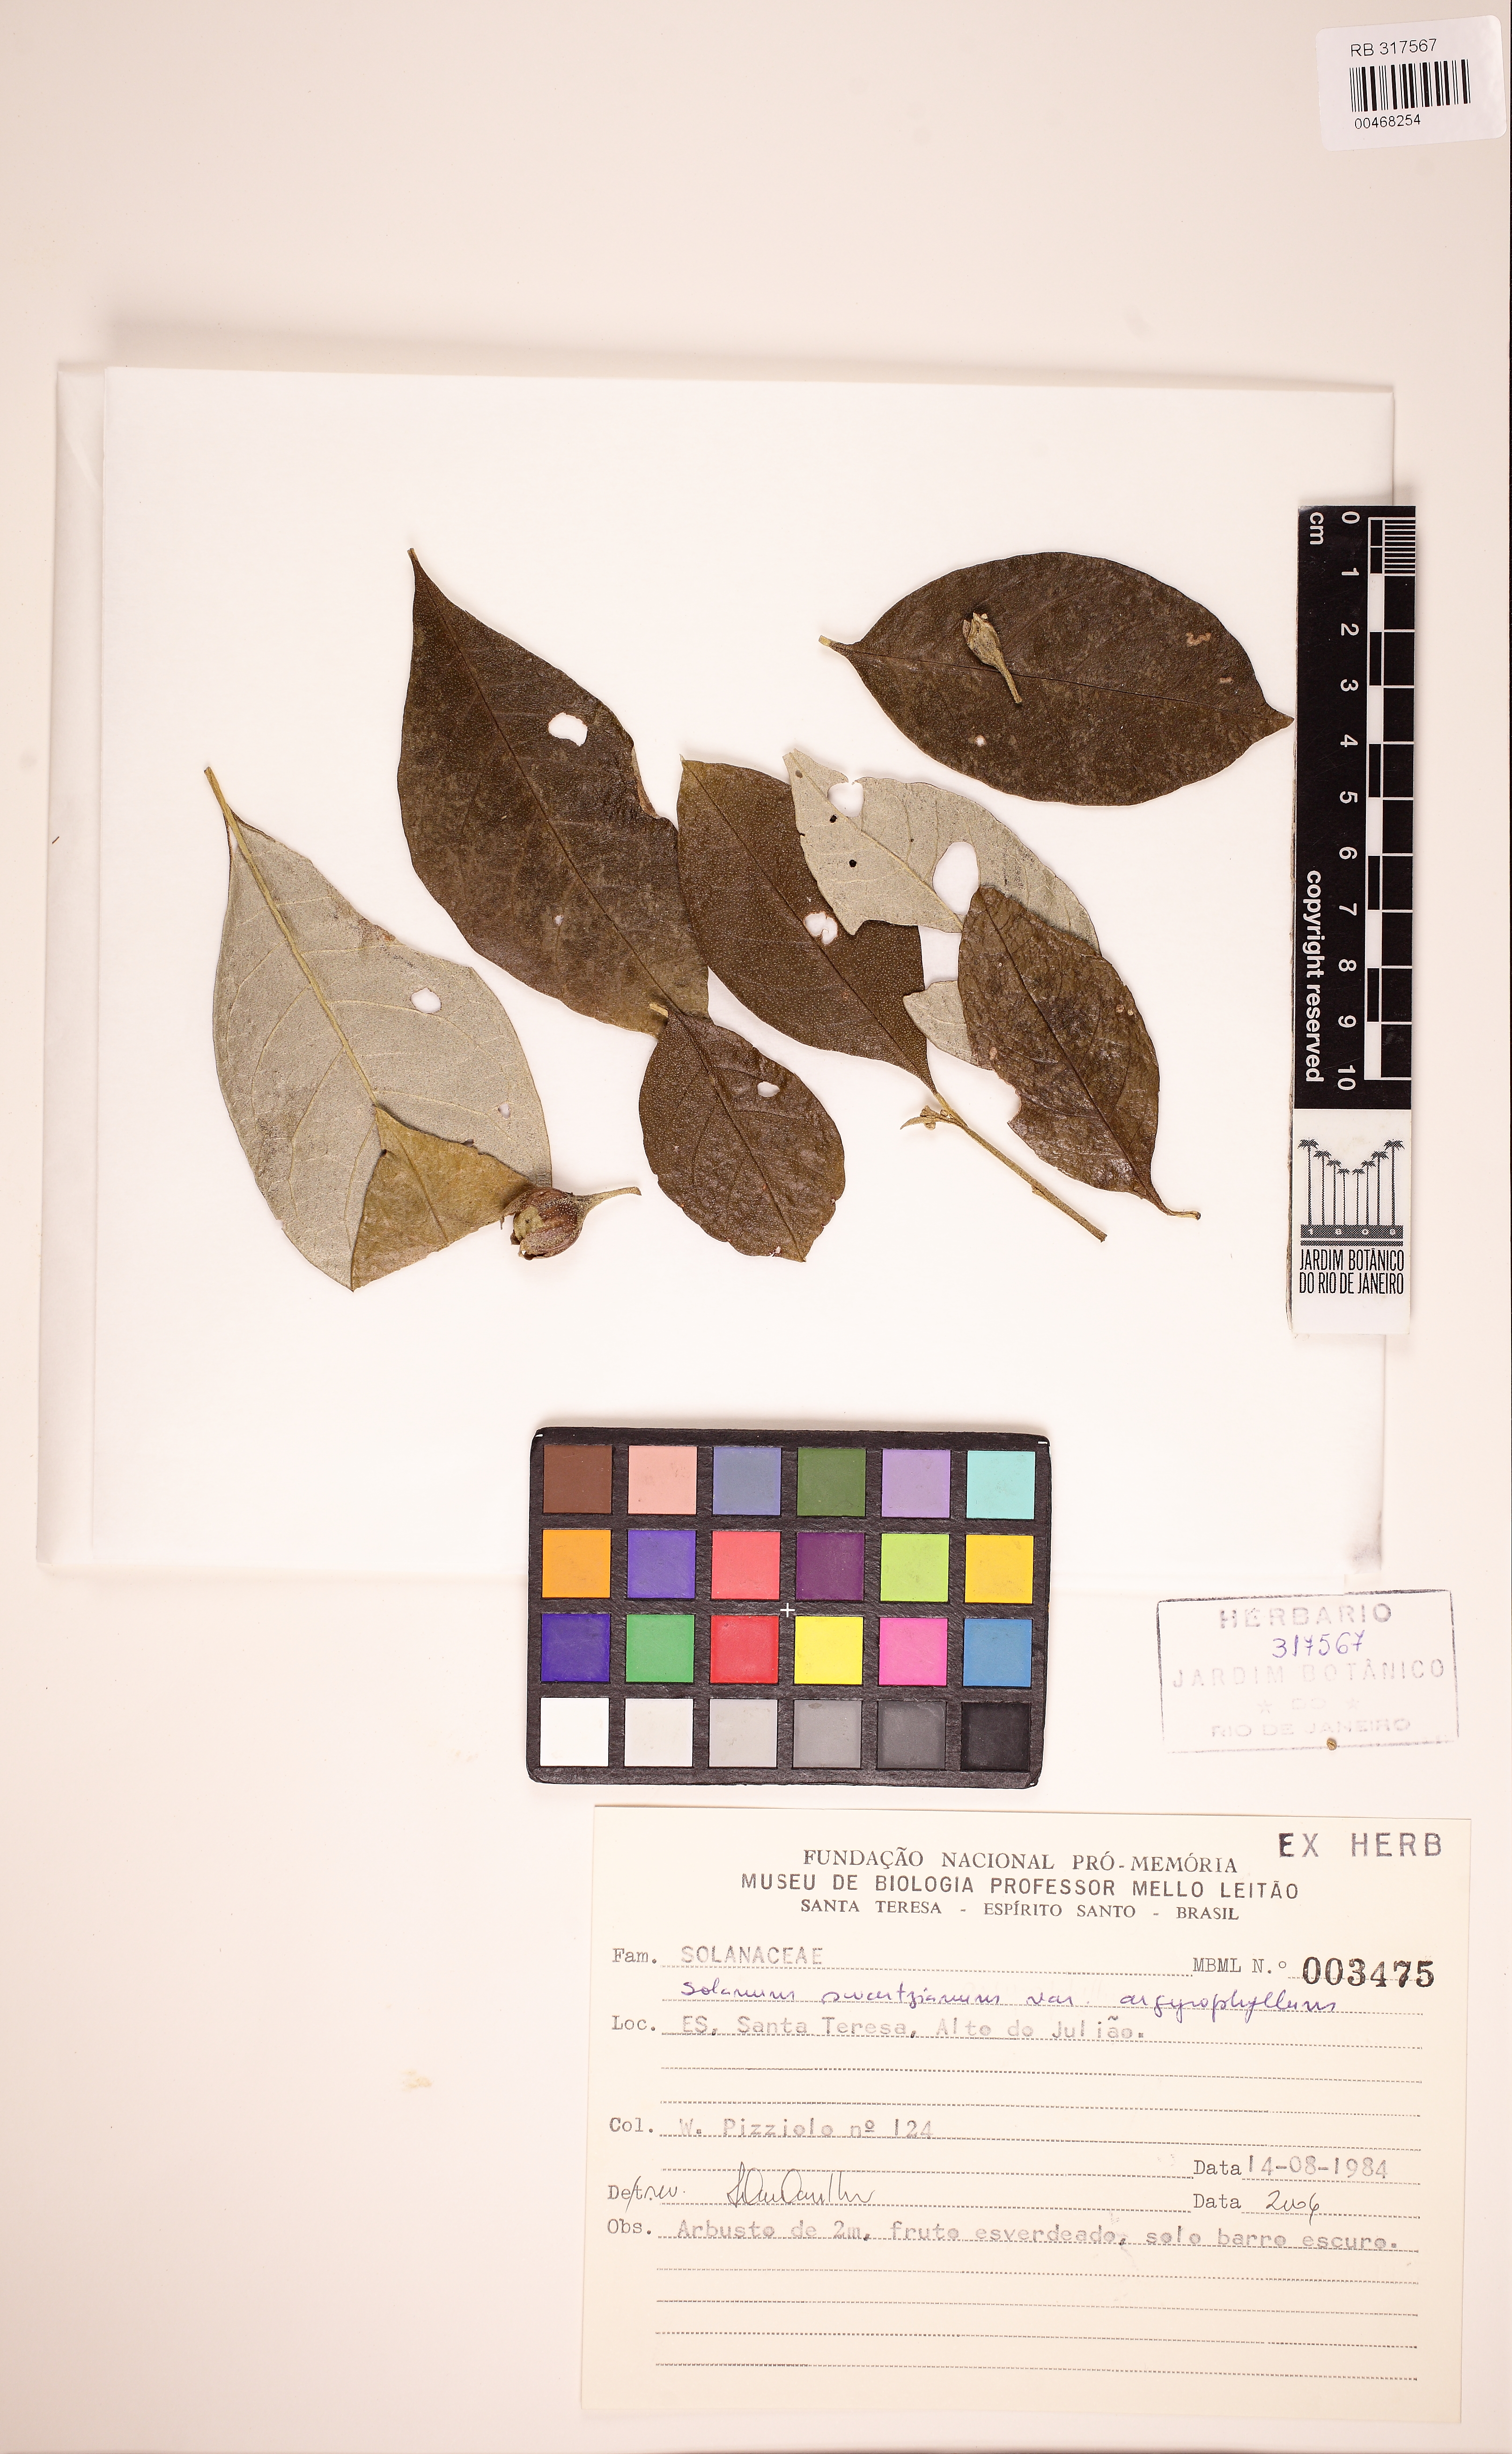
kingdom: Plantae
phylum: Tracheophyta
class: Magnoliopsida
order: Solanales
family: Solanaceae
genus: Solanum
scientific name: Solanum swartzianum
